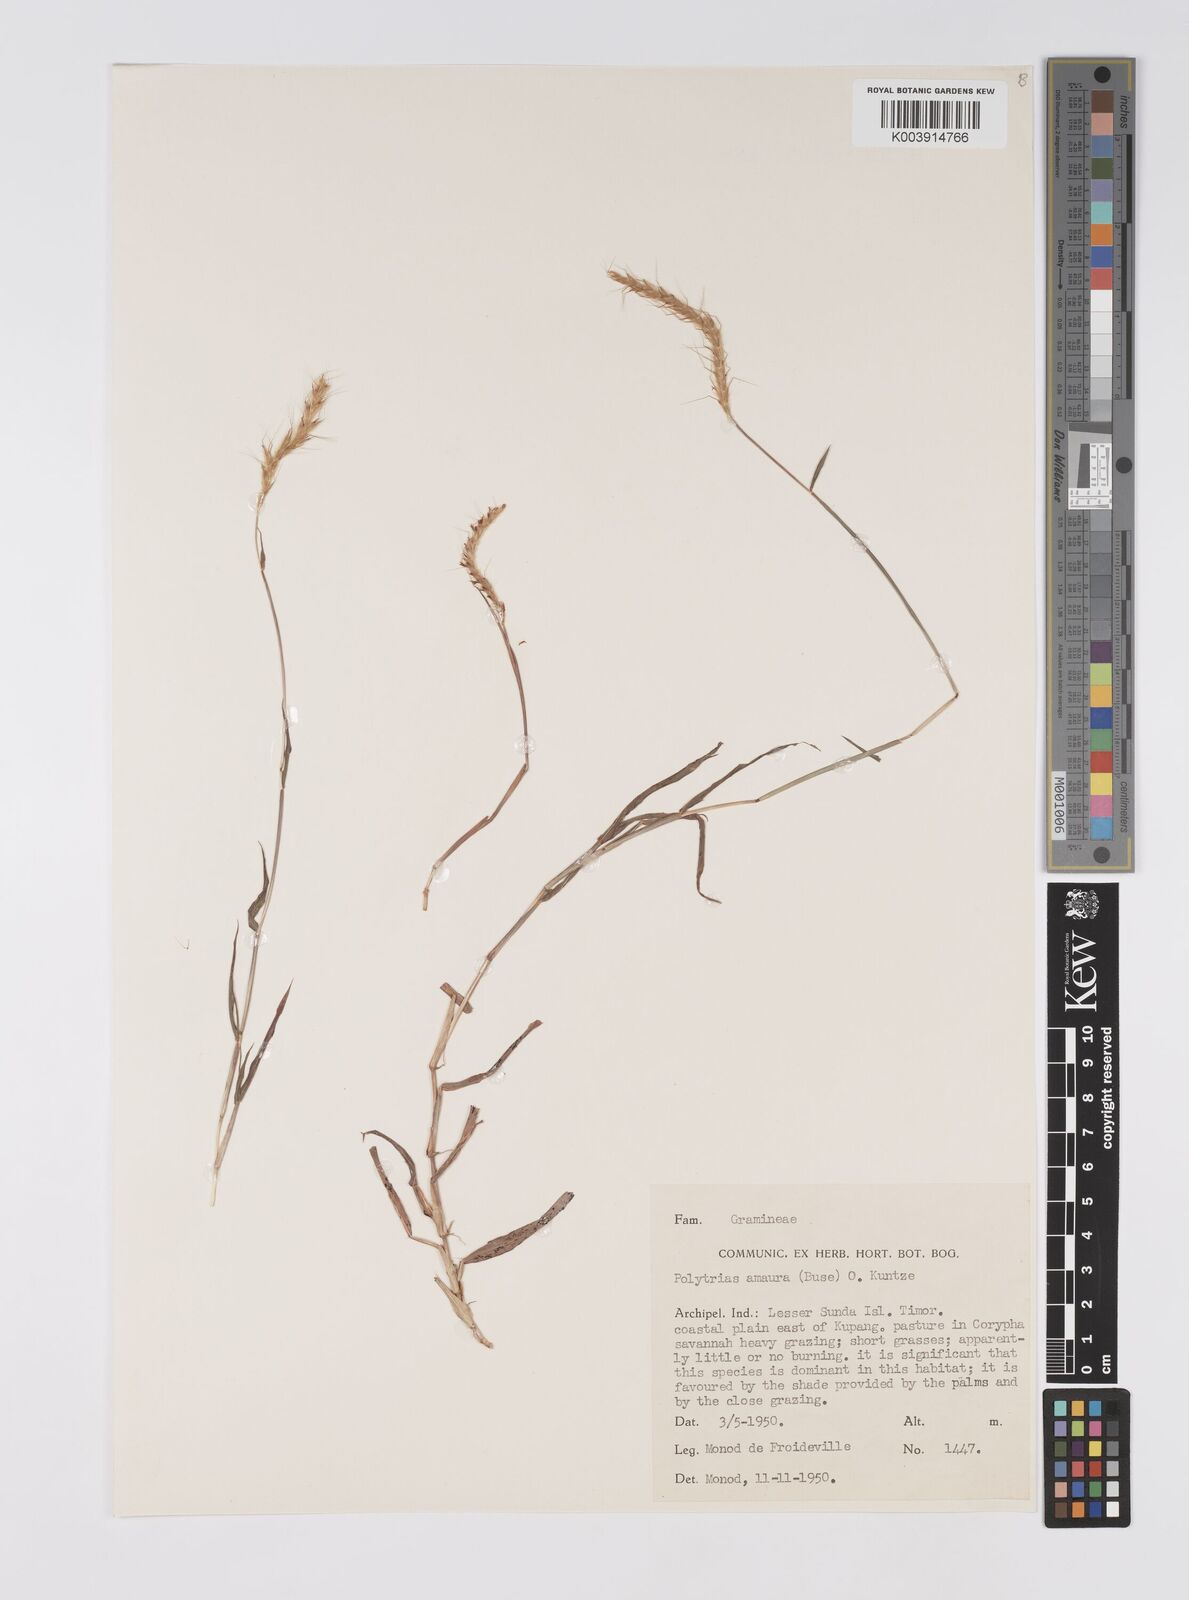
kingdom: Plantae
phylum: Tracheophyta
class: Liliopsida
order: Poales
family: Poaceae
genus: Polytrias
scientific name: Polytrias indica
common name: Indian murainagrass
